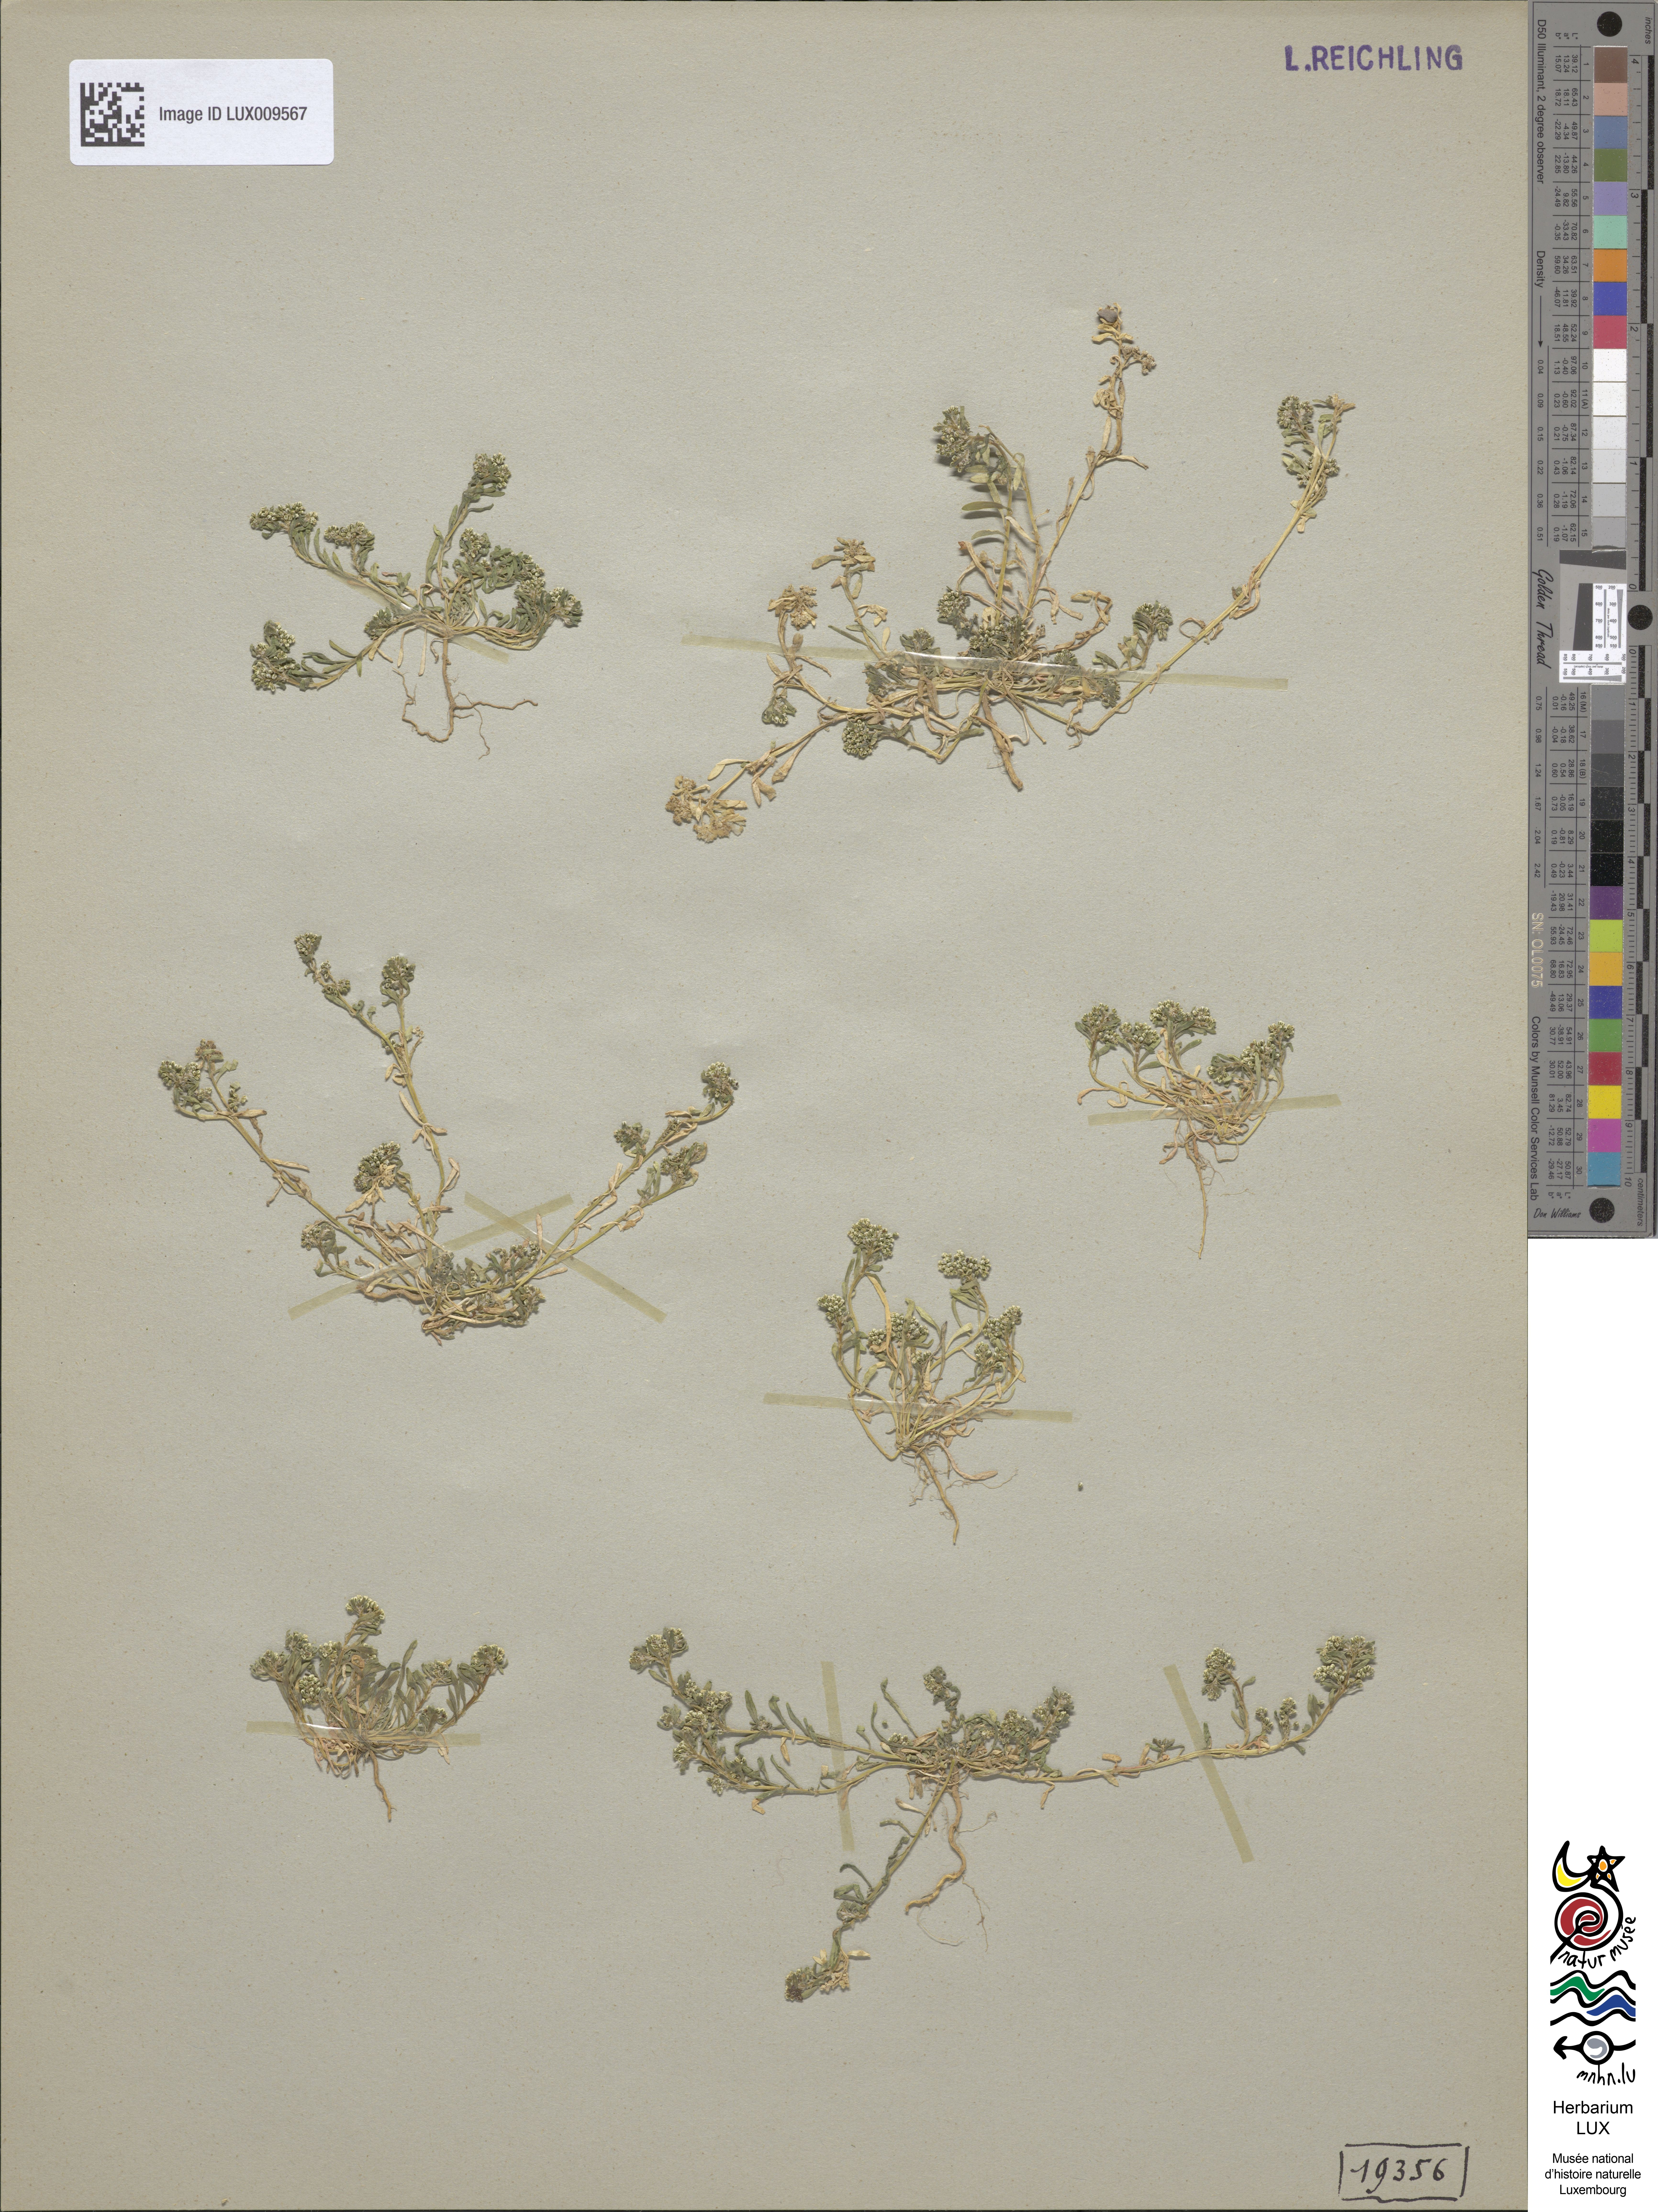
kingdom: Plantae
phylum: Tracheophyta
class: Magnoliopsida
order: Caryophyllales
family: Caryophyllaceae
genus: Corrigiola
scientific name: Corrigiola litoralis
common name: Strapwort
